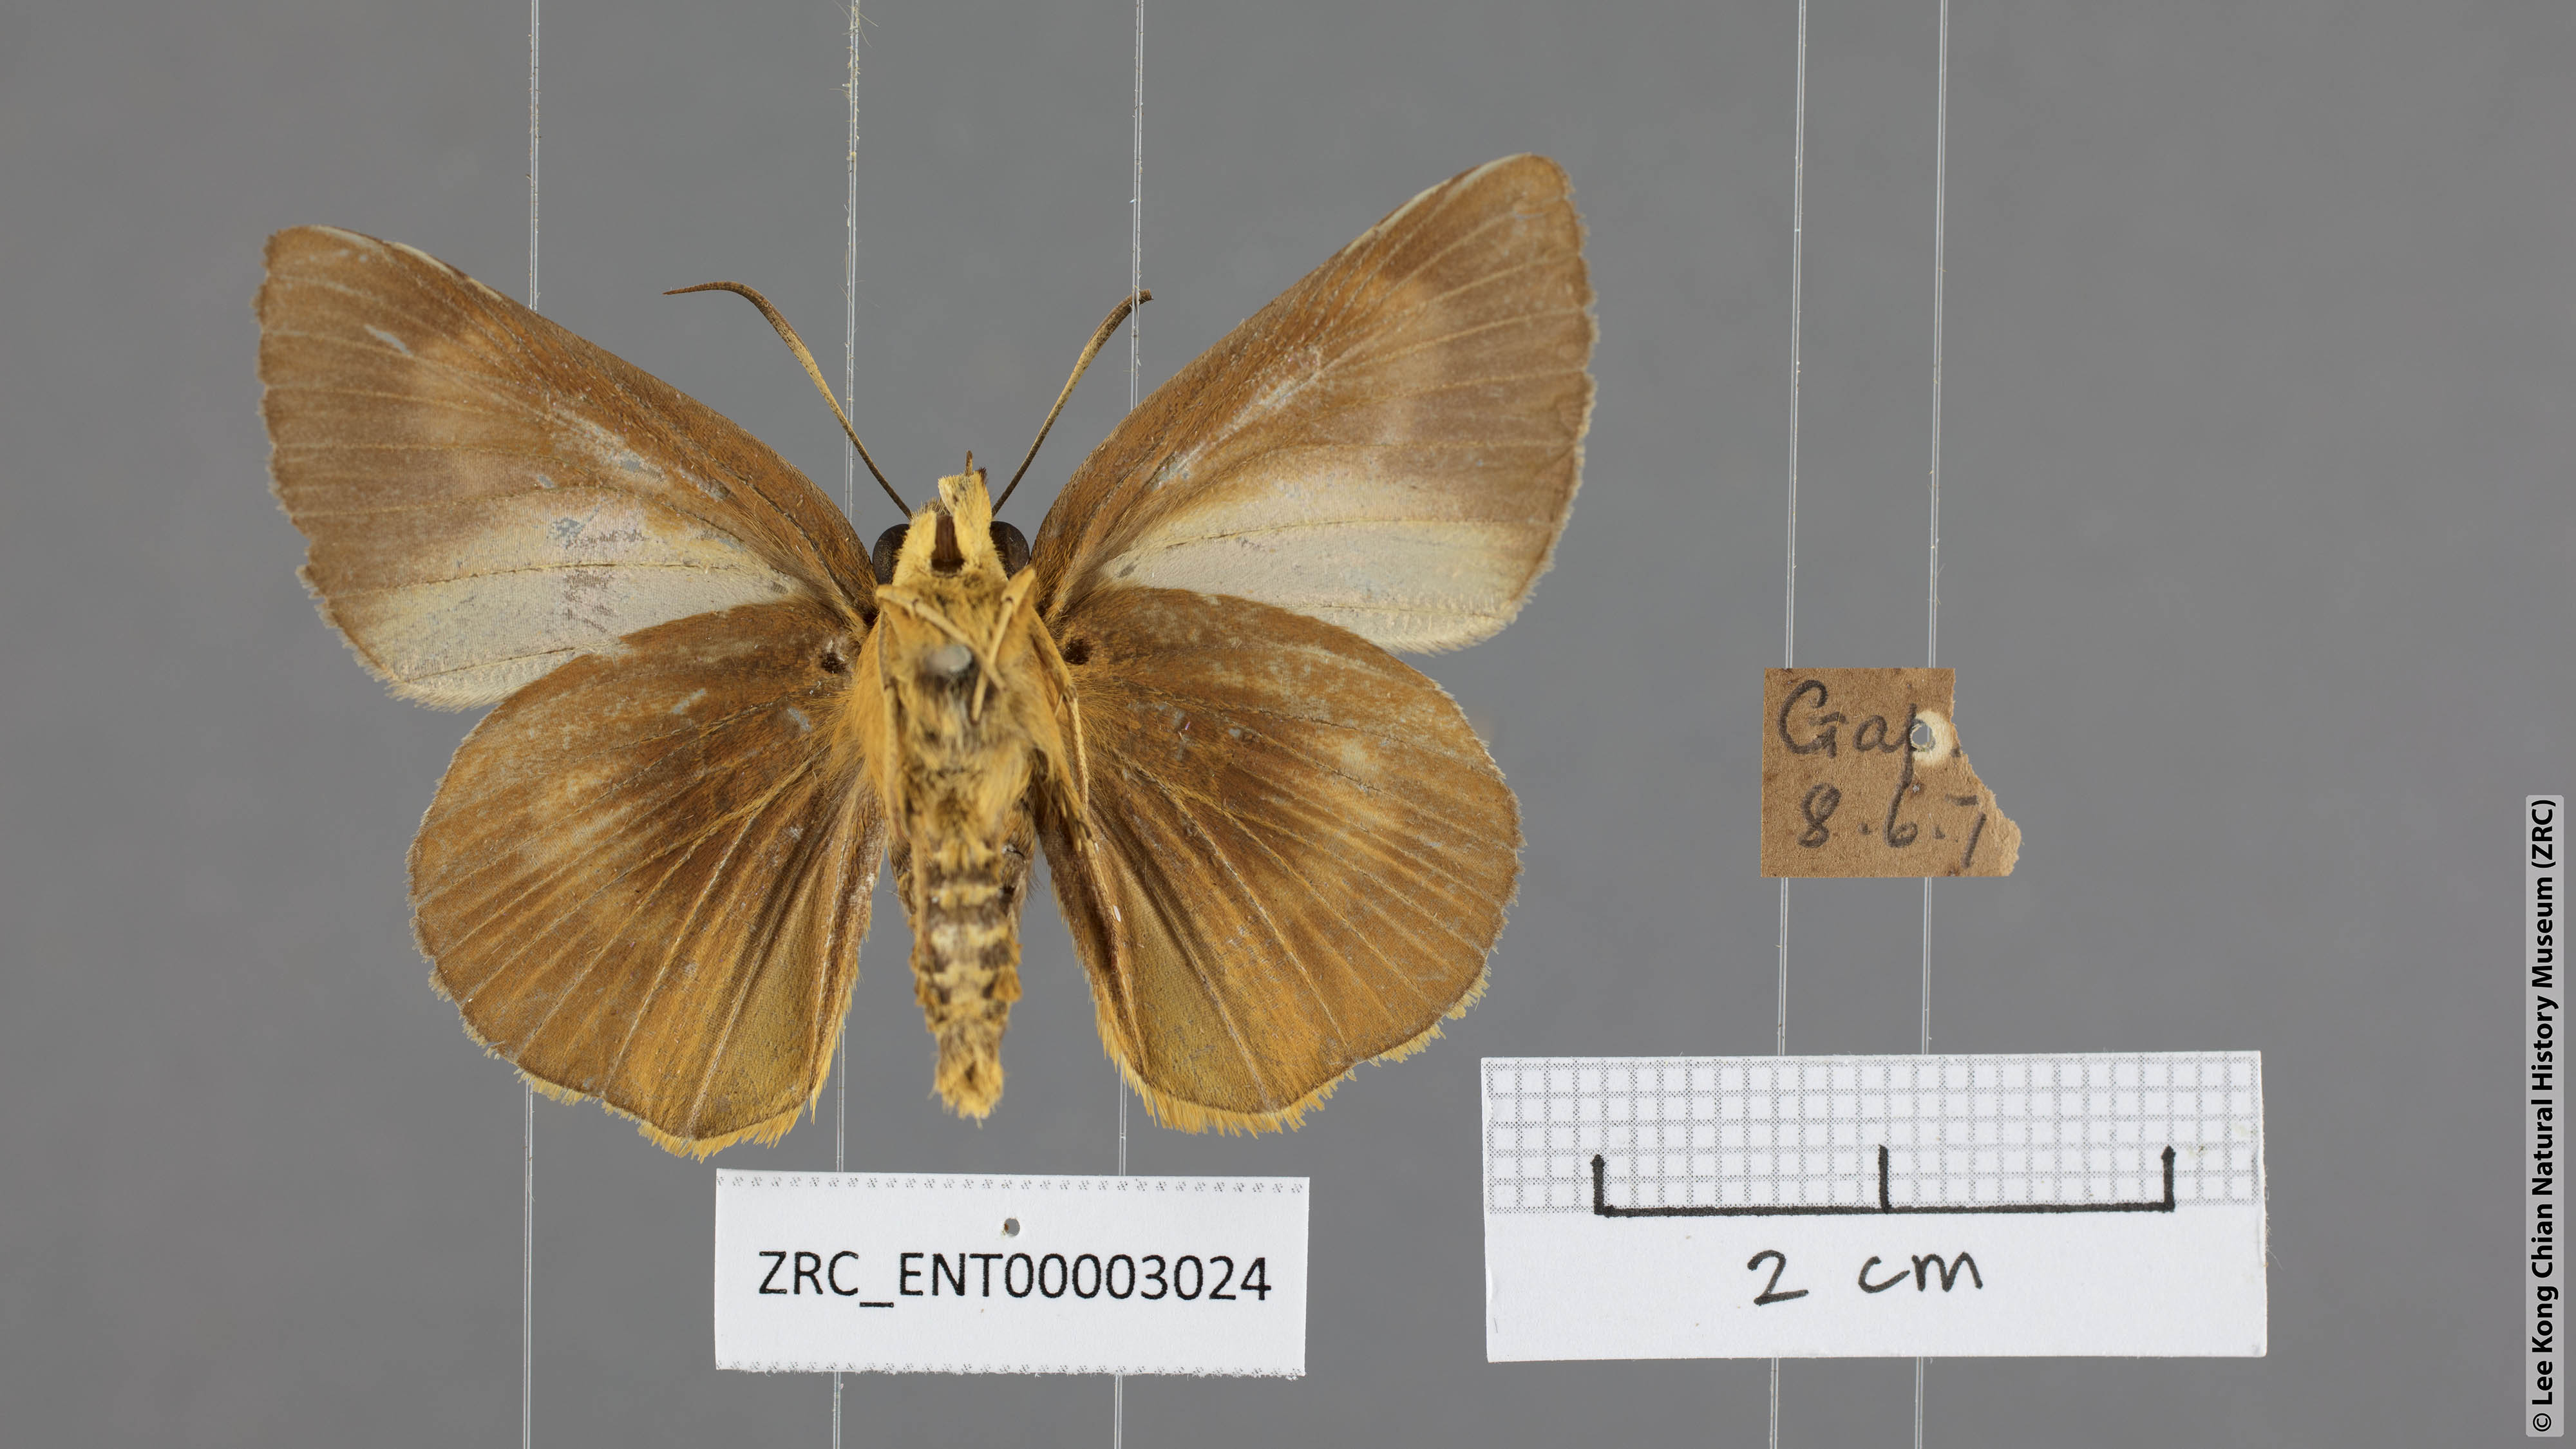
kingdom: Animalia
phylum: Arthropoda
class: Insecta
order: Lepidoptera
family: Hesperiidae
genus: Bibasis
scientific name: Bibasis Burara harisa
